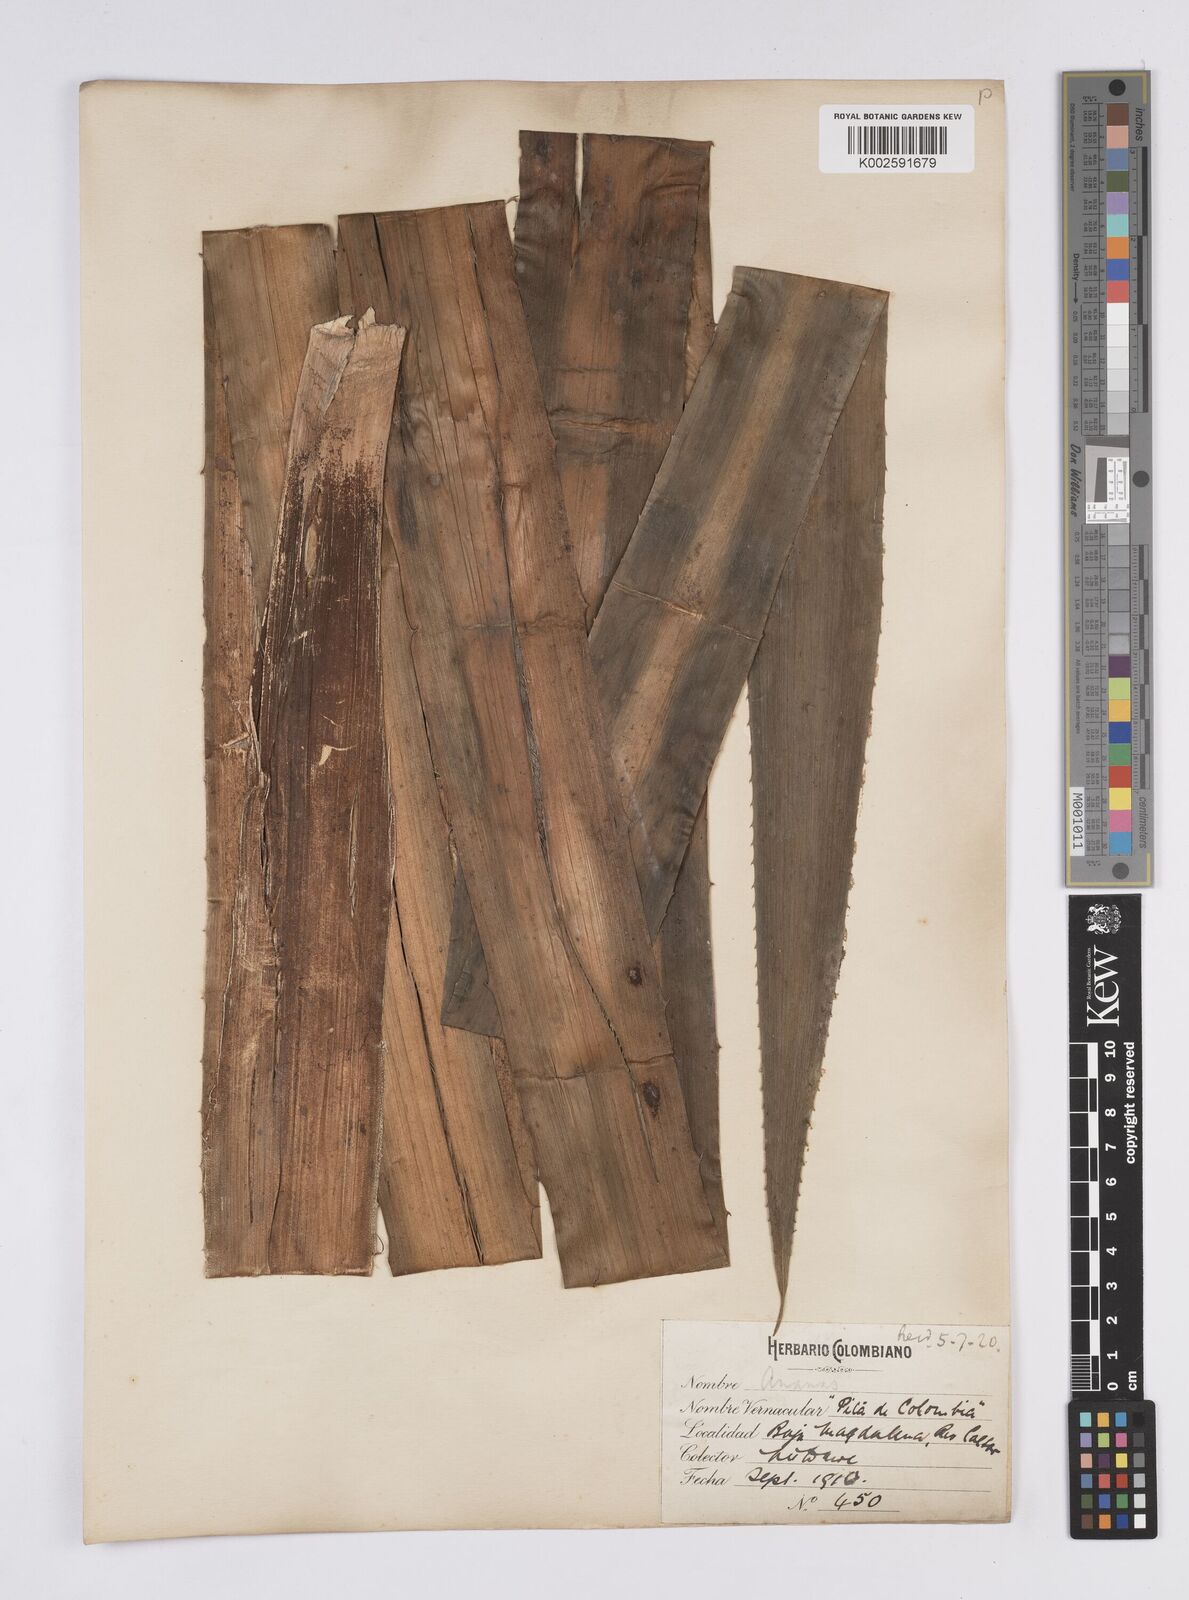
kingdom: Plantae
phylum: Tracheophyta
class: Liliopsida
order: Poales
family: Bromeliaceae
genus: Aechmea
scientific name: Aechmea magdalenae
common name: Arghan
